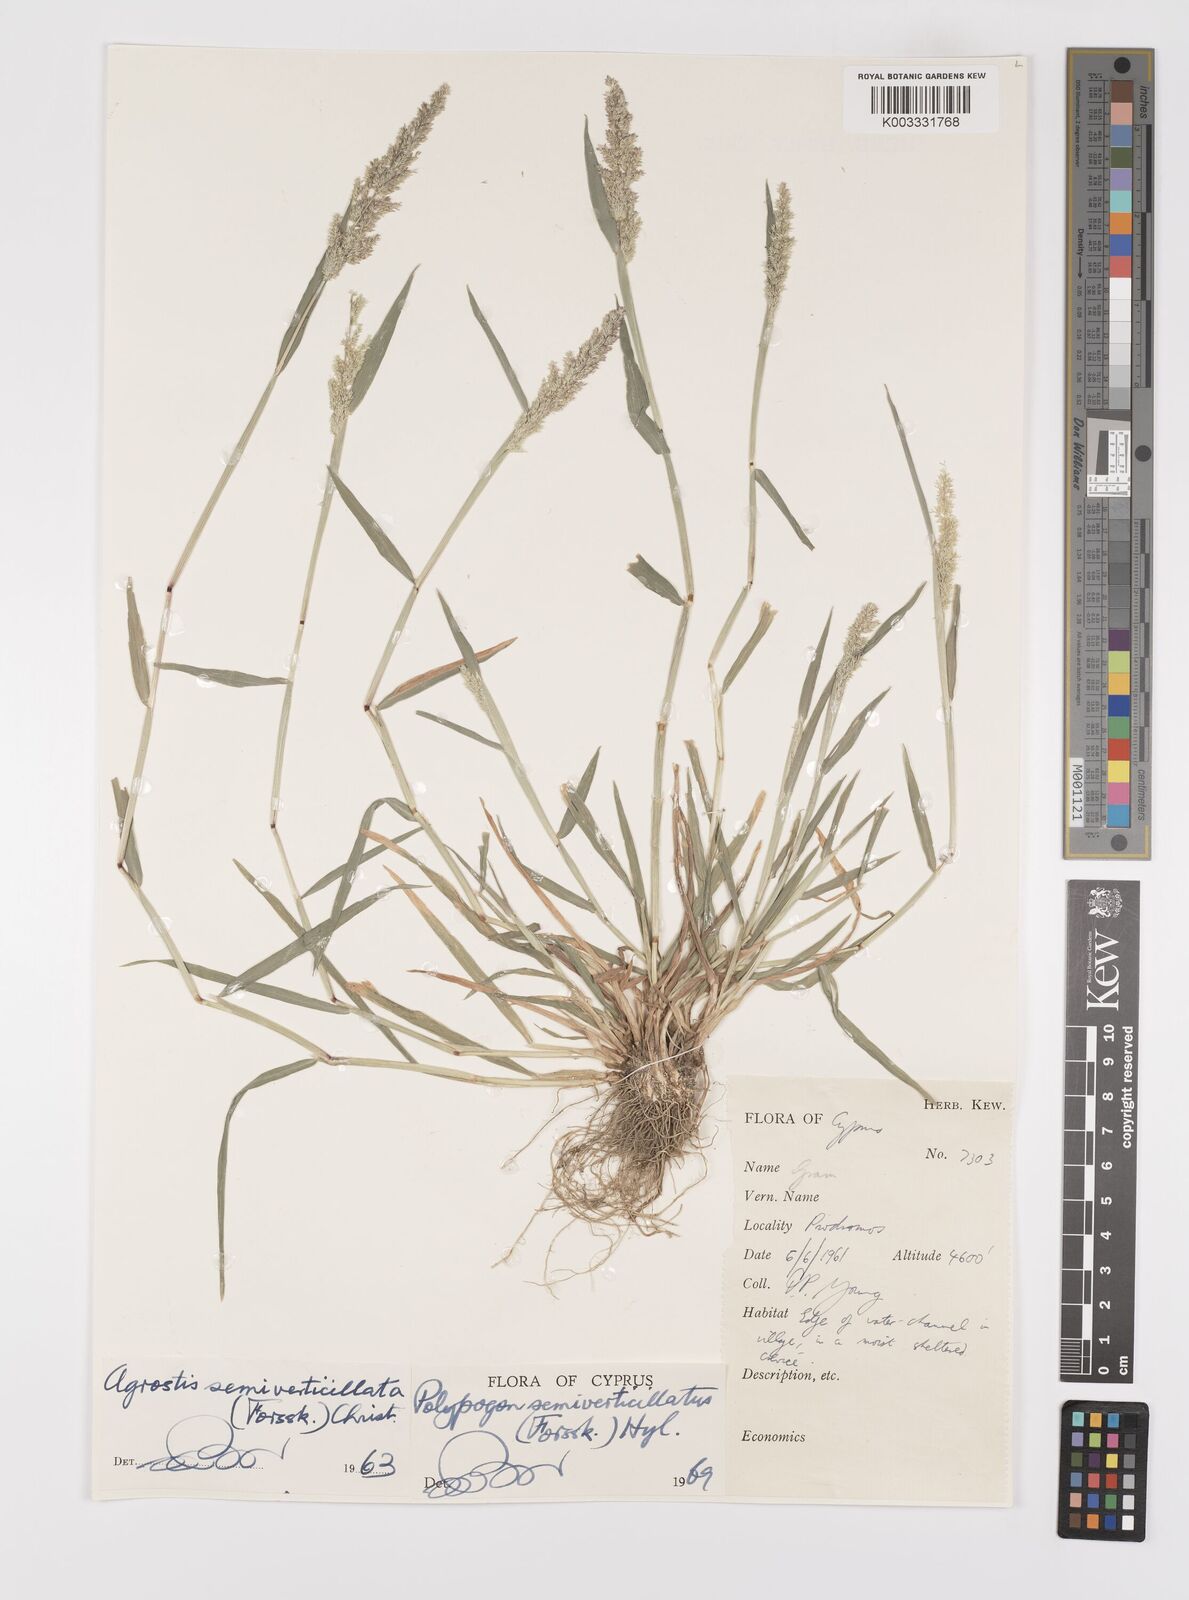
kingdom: Plantae
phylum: Tracheophyta
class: Liliopsida
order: Poales
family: Poaceae
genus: Polypogon
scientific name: Polypogon viridis
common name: Water bent
